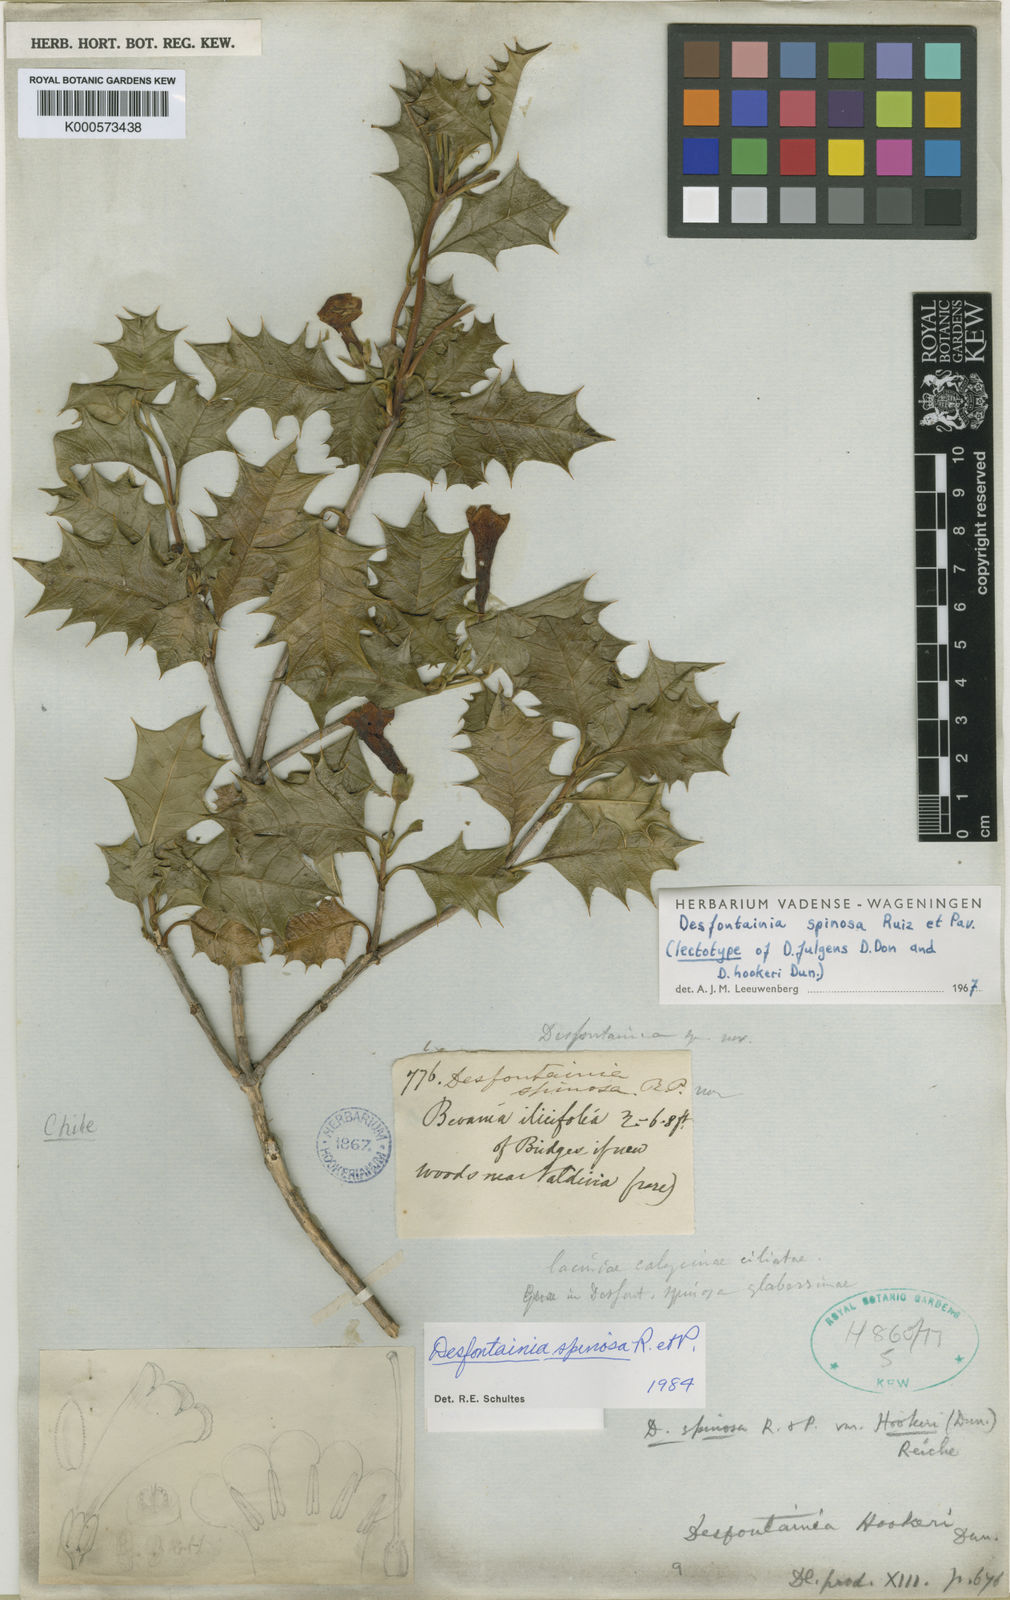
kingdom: Plantae
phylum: Tracheophyta
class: Magnoliopsida
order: Bruniales
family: Columelliaceae
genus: Desfontainia
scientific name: Desfontainia fulgens
